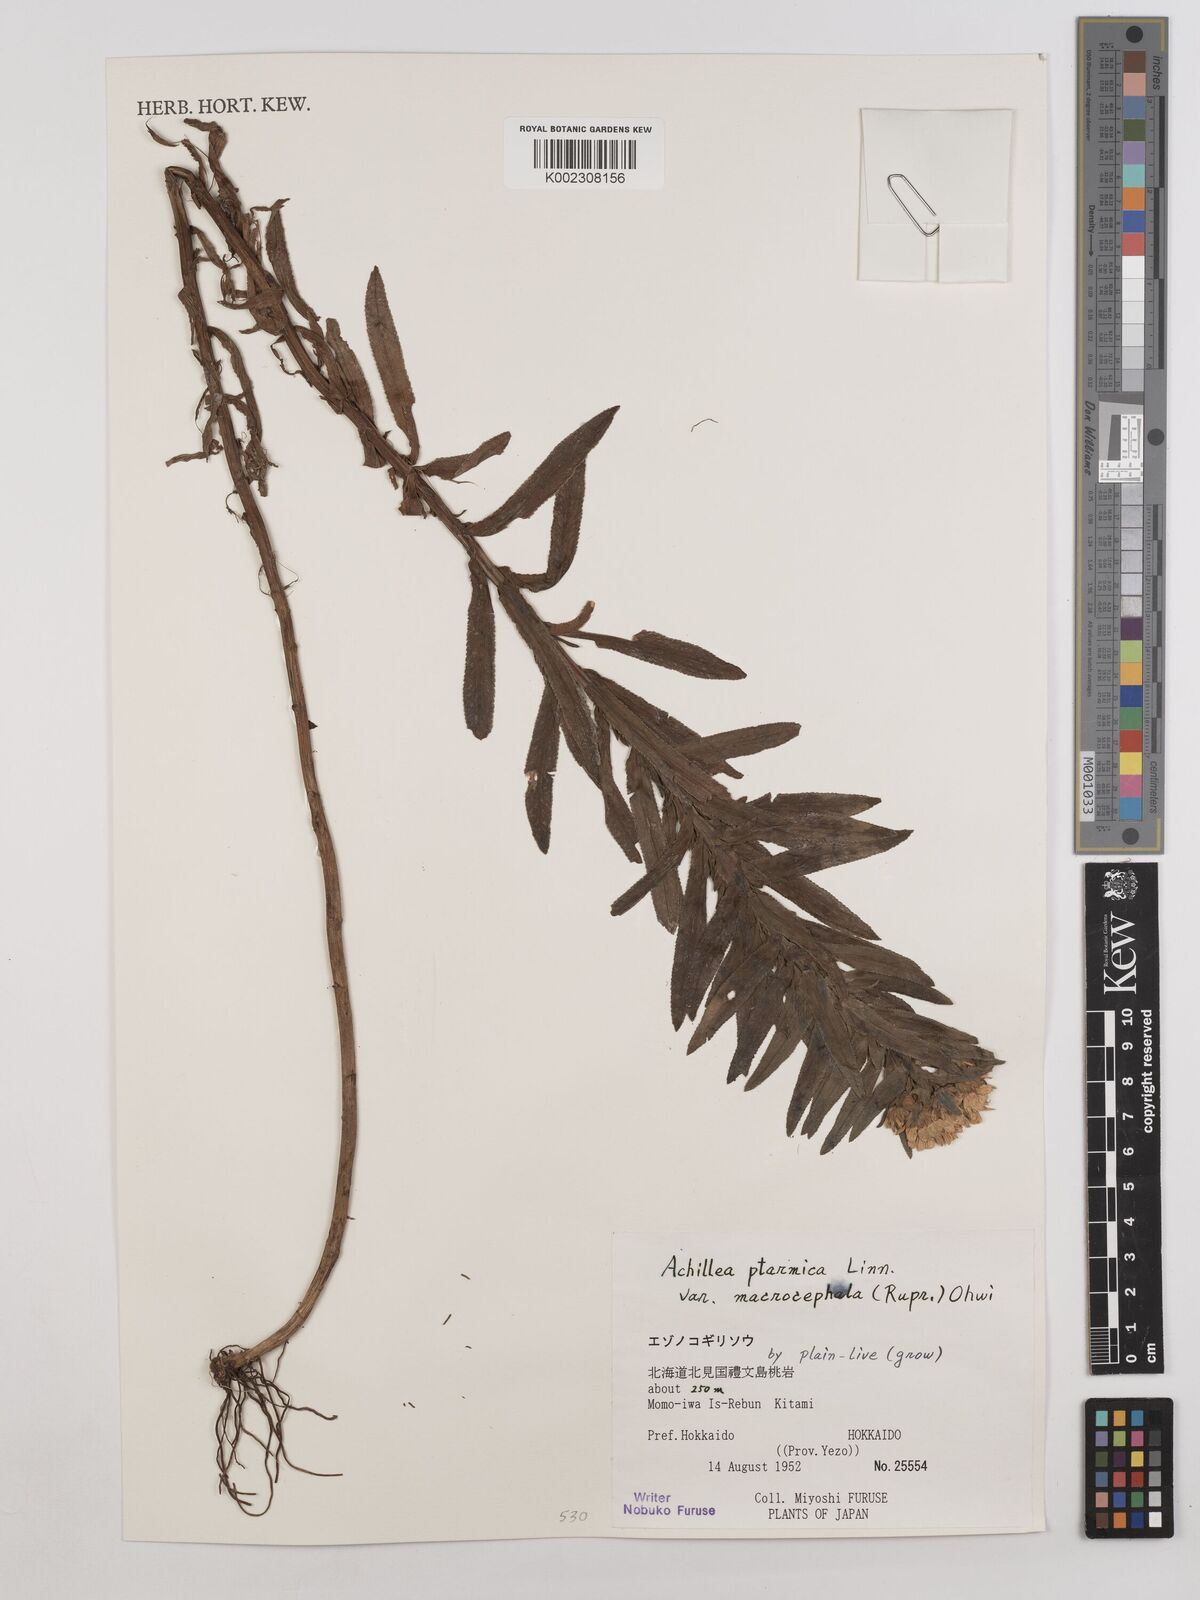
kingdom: Plantae
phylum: Tracheophyta
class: Magnoliopsida
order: Asterales
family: Asteraceae
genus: Achillea
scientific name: Achillea ptarmica
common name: Sneezeweed
